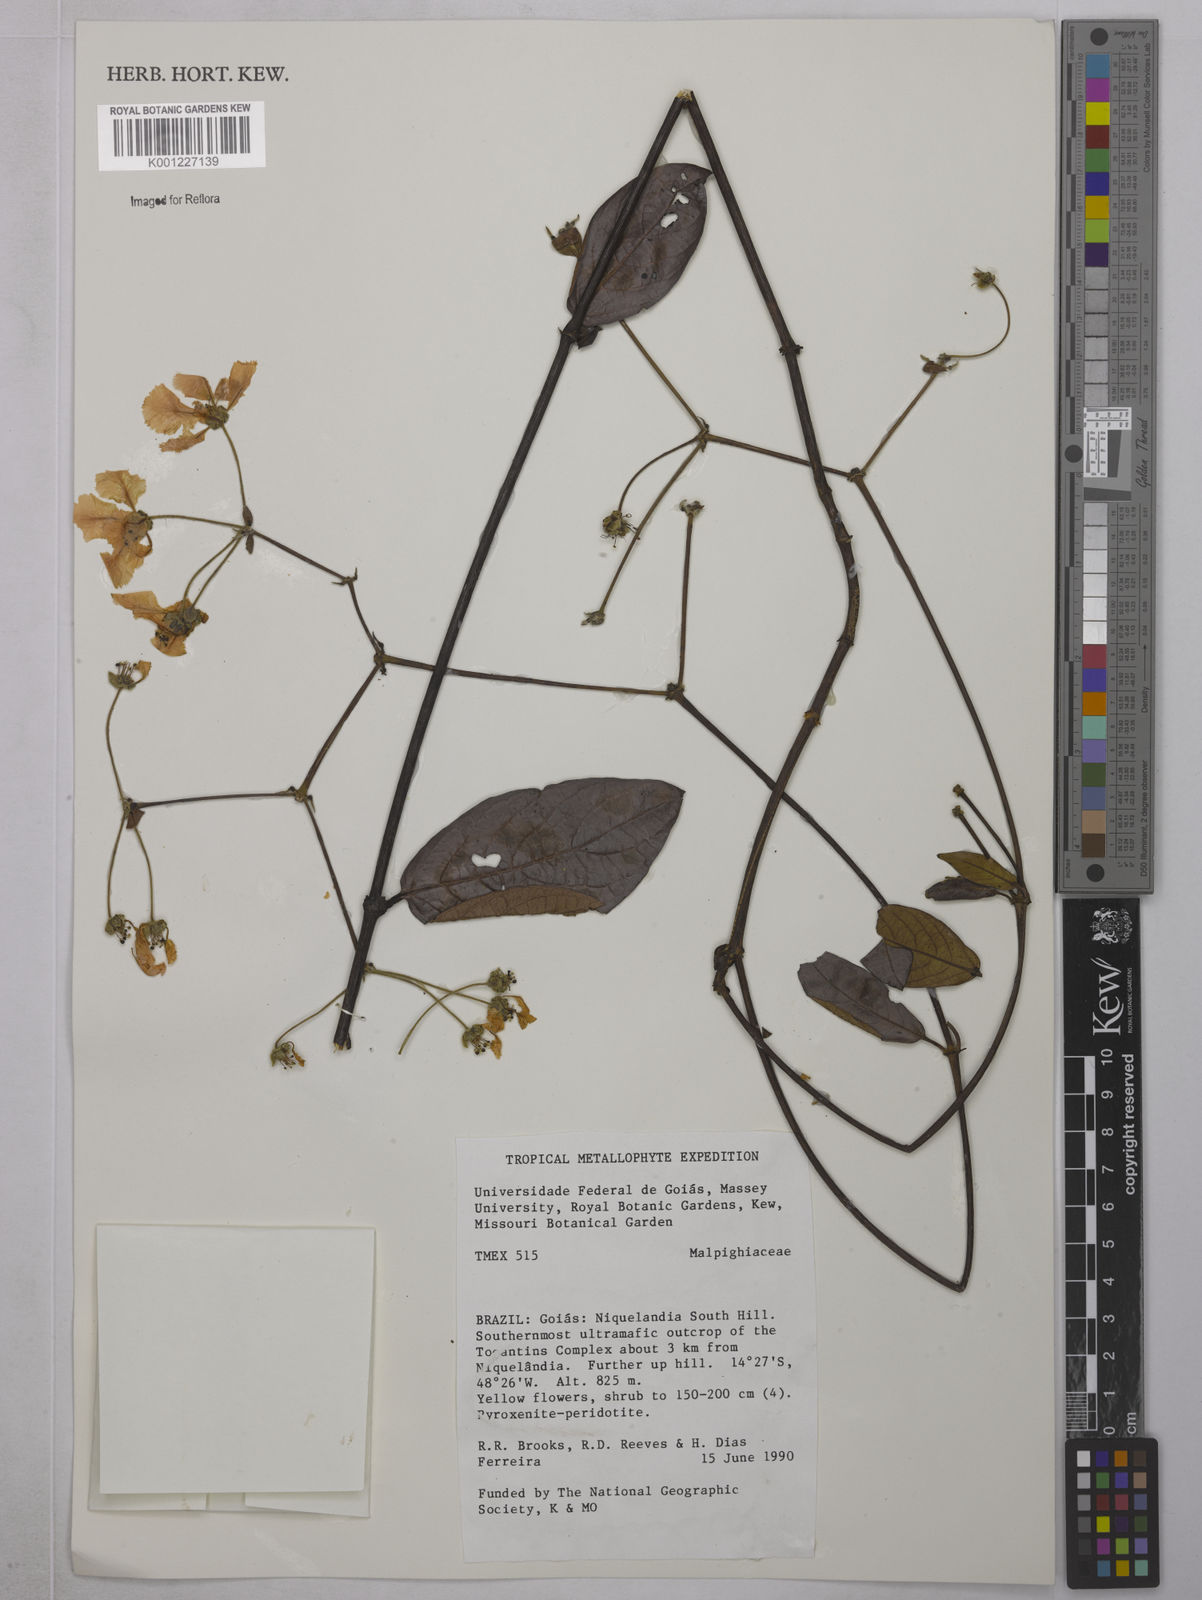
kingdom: Plantae
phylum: Tracheophyta
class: Magnoliopsida
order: Malpighiales
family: Malpighiaceae
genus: Peixotoa
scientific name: Peixotoa
